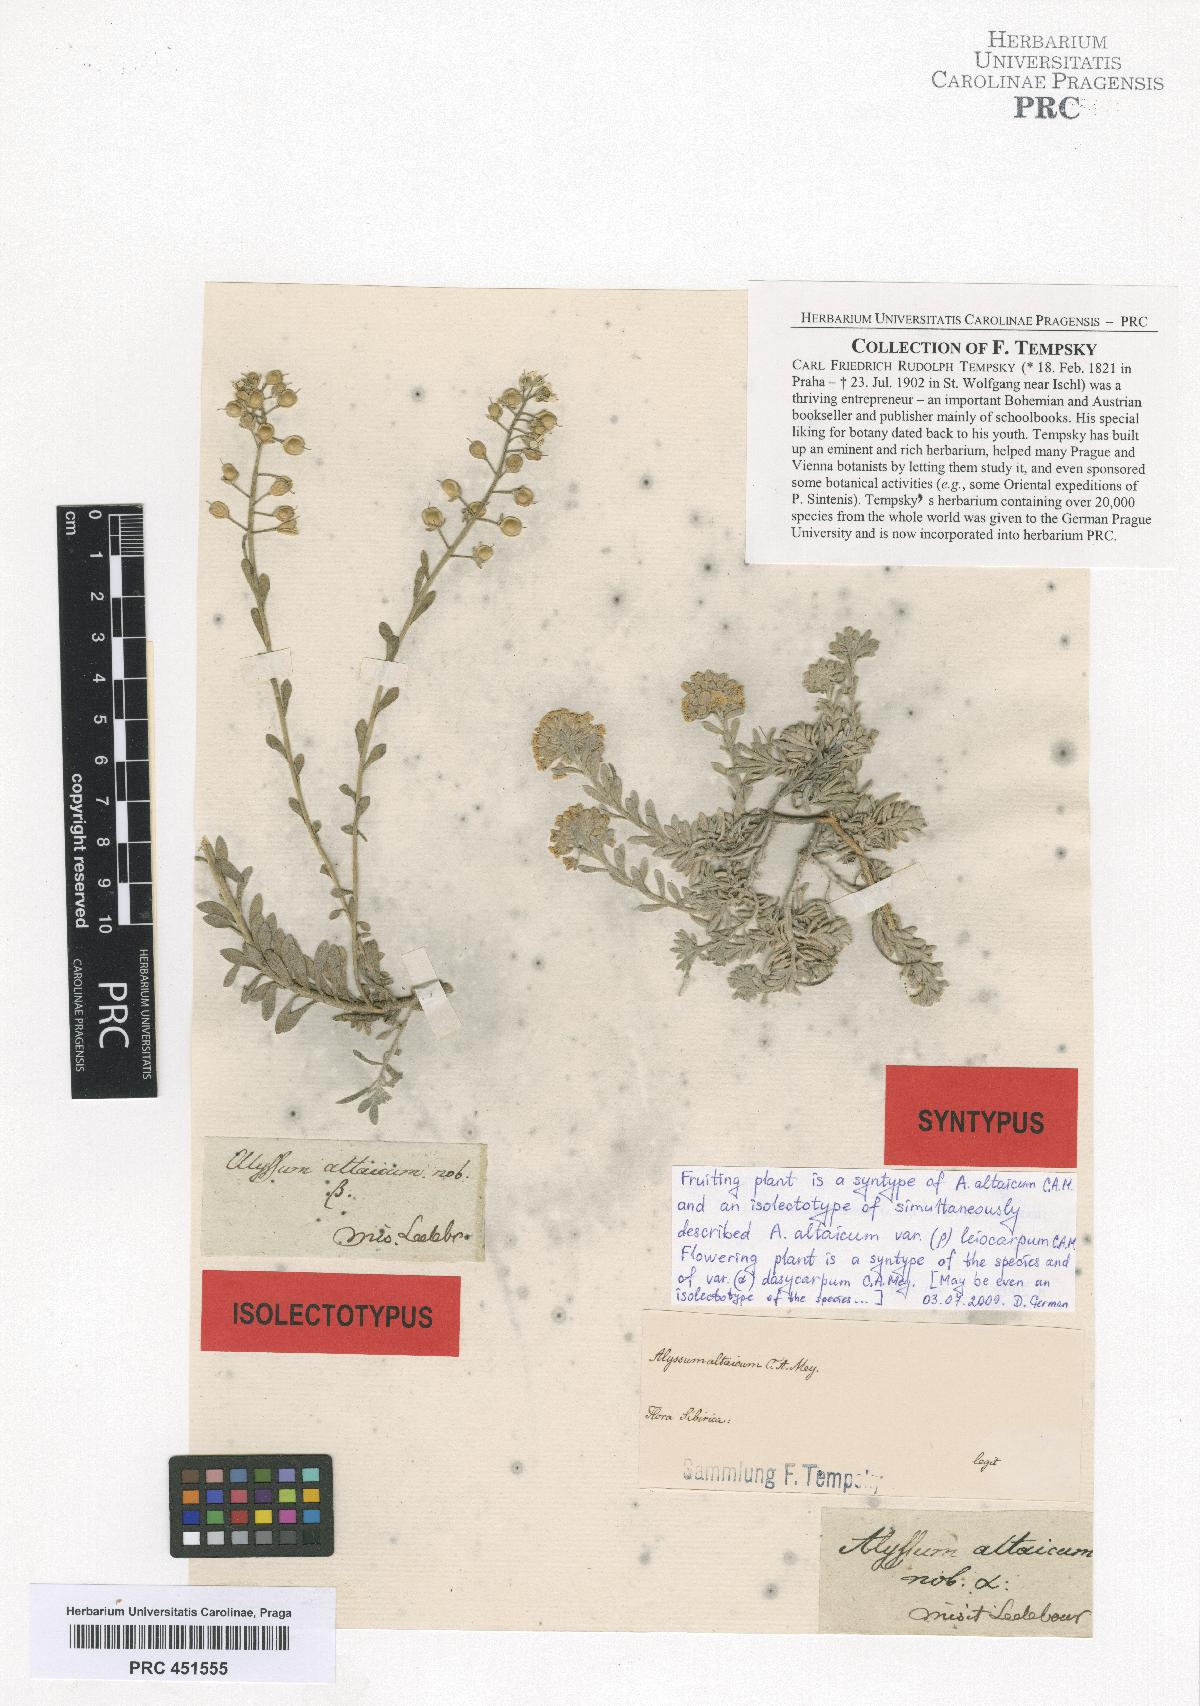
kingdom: Plantae
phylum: Tracheophyta
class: Magnoliopsida
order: Brassicales
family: Brassicaceae
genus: Alyssum
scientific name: Alyssum lenense
